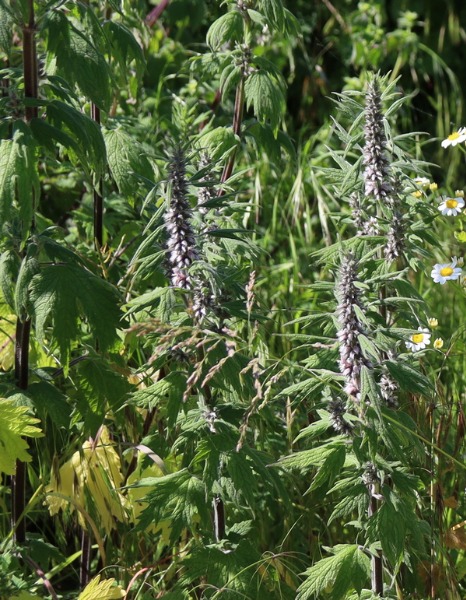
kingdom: Plantae
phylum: Tracheophyta
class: Magnoliopsida
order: Lamiales
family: Lamiaceae
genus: Leonurus
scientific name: Leonurus cardiaca
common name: Hjertespand
